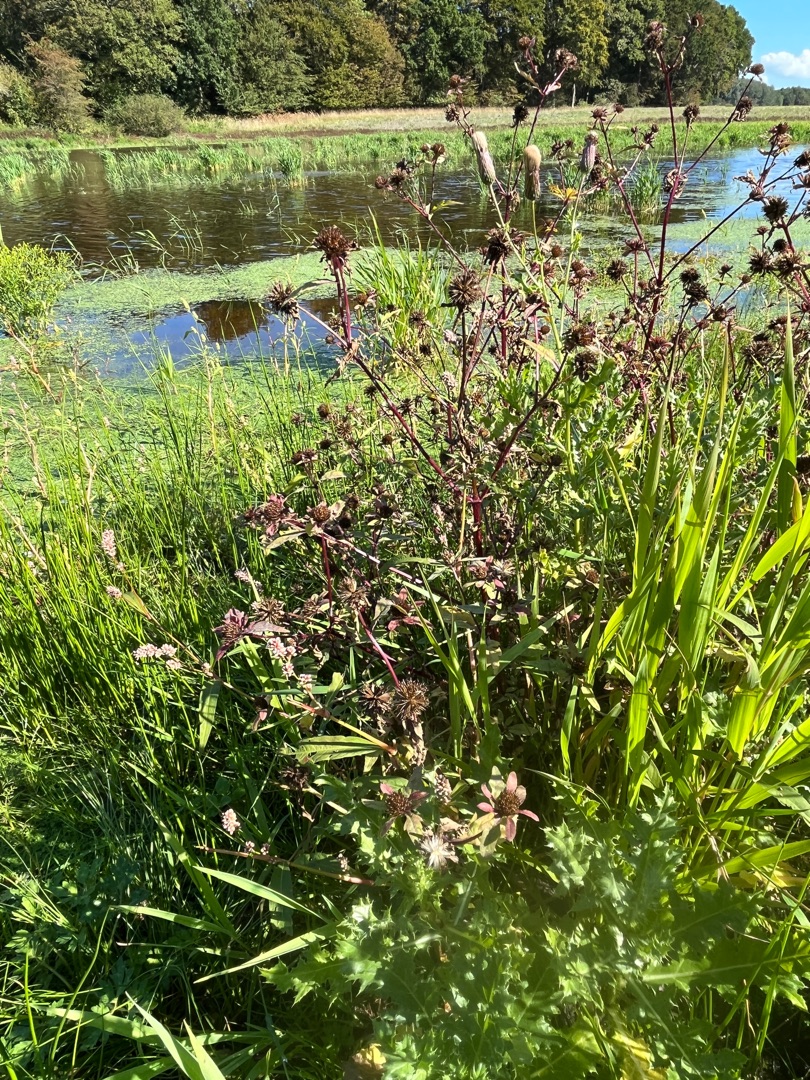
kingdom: Plantae
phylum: Tracheophyta
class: Magnoliopsida
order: Asterales
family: Asteraceae
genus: Bidens
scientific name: Bidens tripartita
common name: Fliget brøndsel
